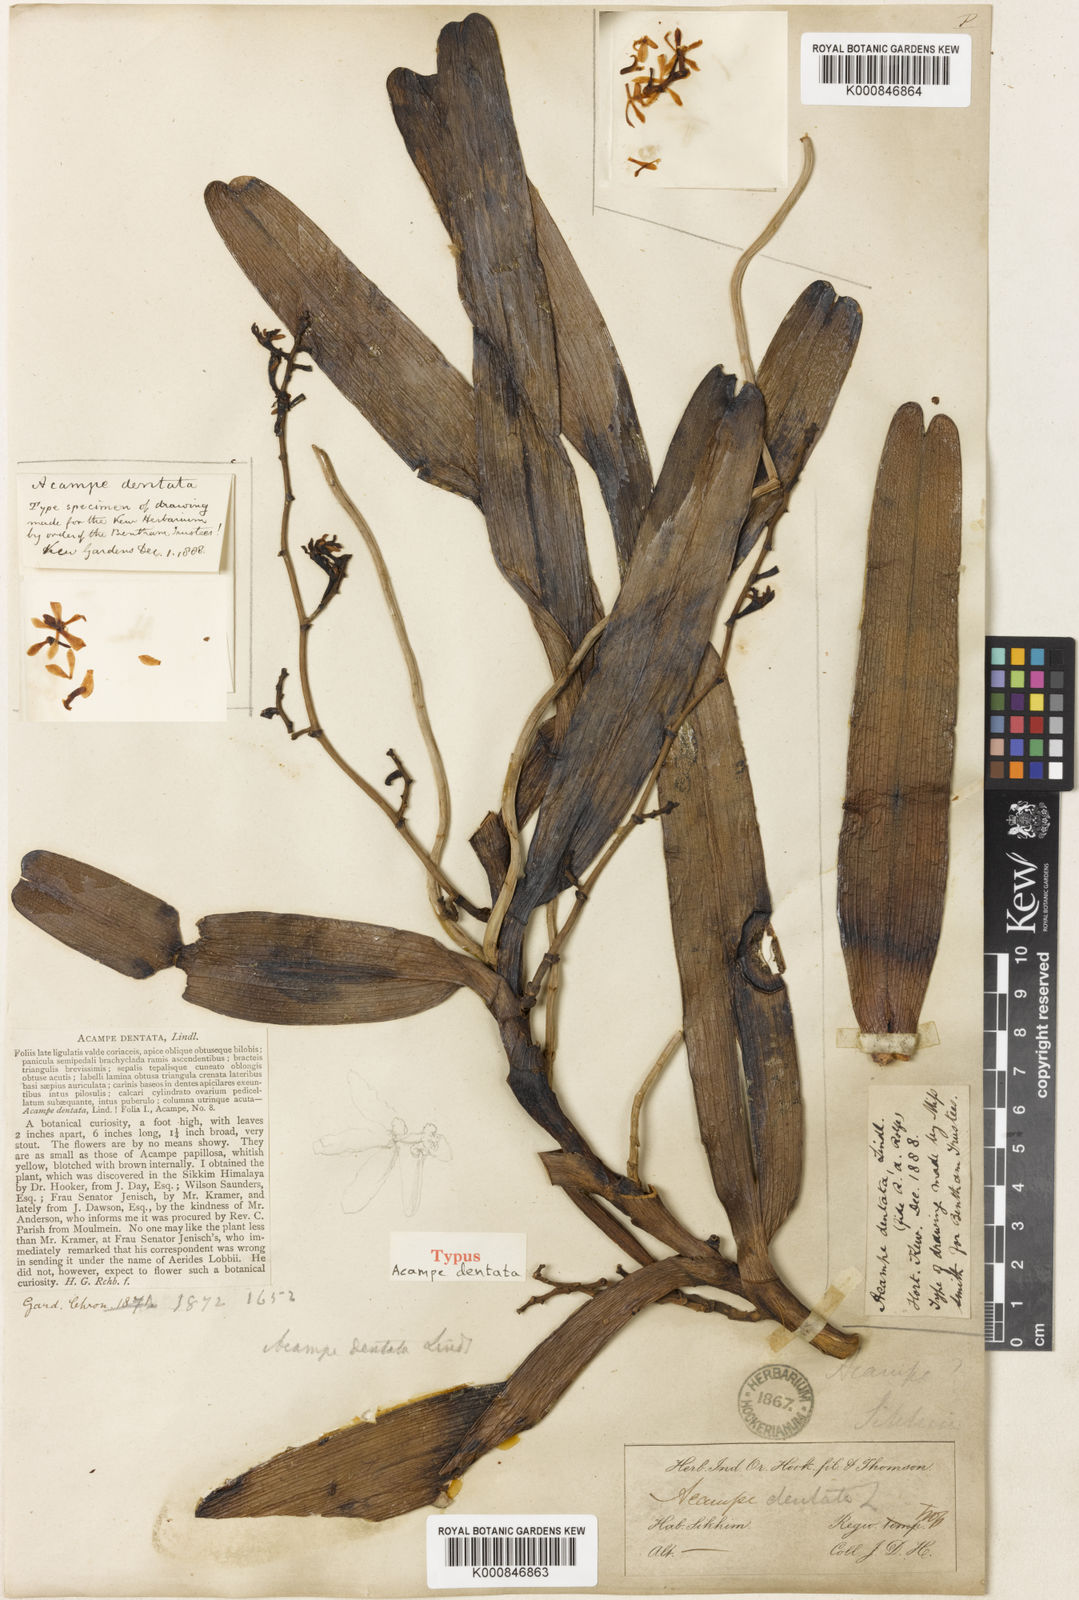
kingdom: Plantae
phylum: Tracheophyta
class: Liliopsida
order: Asparagales
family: Orchidaceae
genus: Acampe
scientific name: Acampe ochracea
